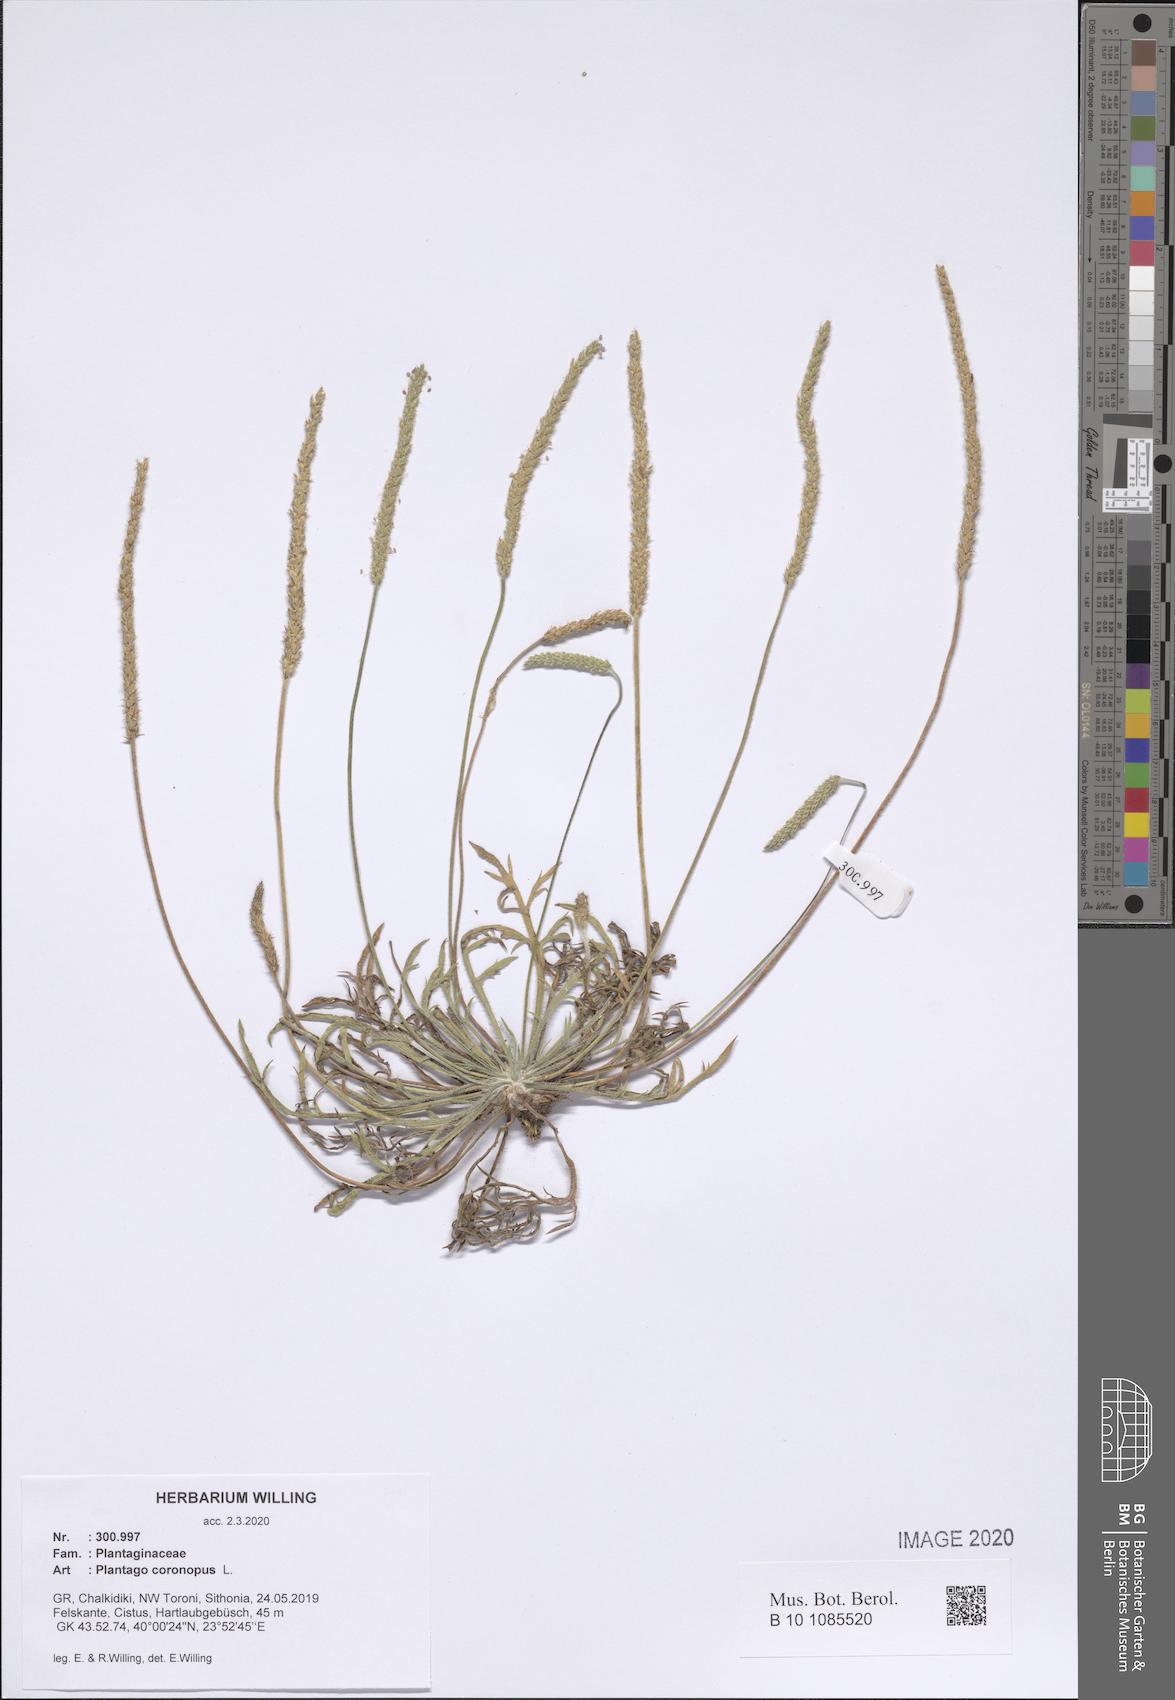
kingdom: Plantae
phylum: Tracheophyta
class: Magnoliopsida
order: Lamiales
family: Plantaginaceae
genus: Plantago
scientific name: Plantago coronopus
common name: Buck's-horn plantain
